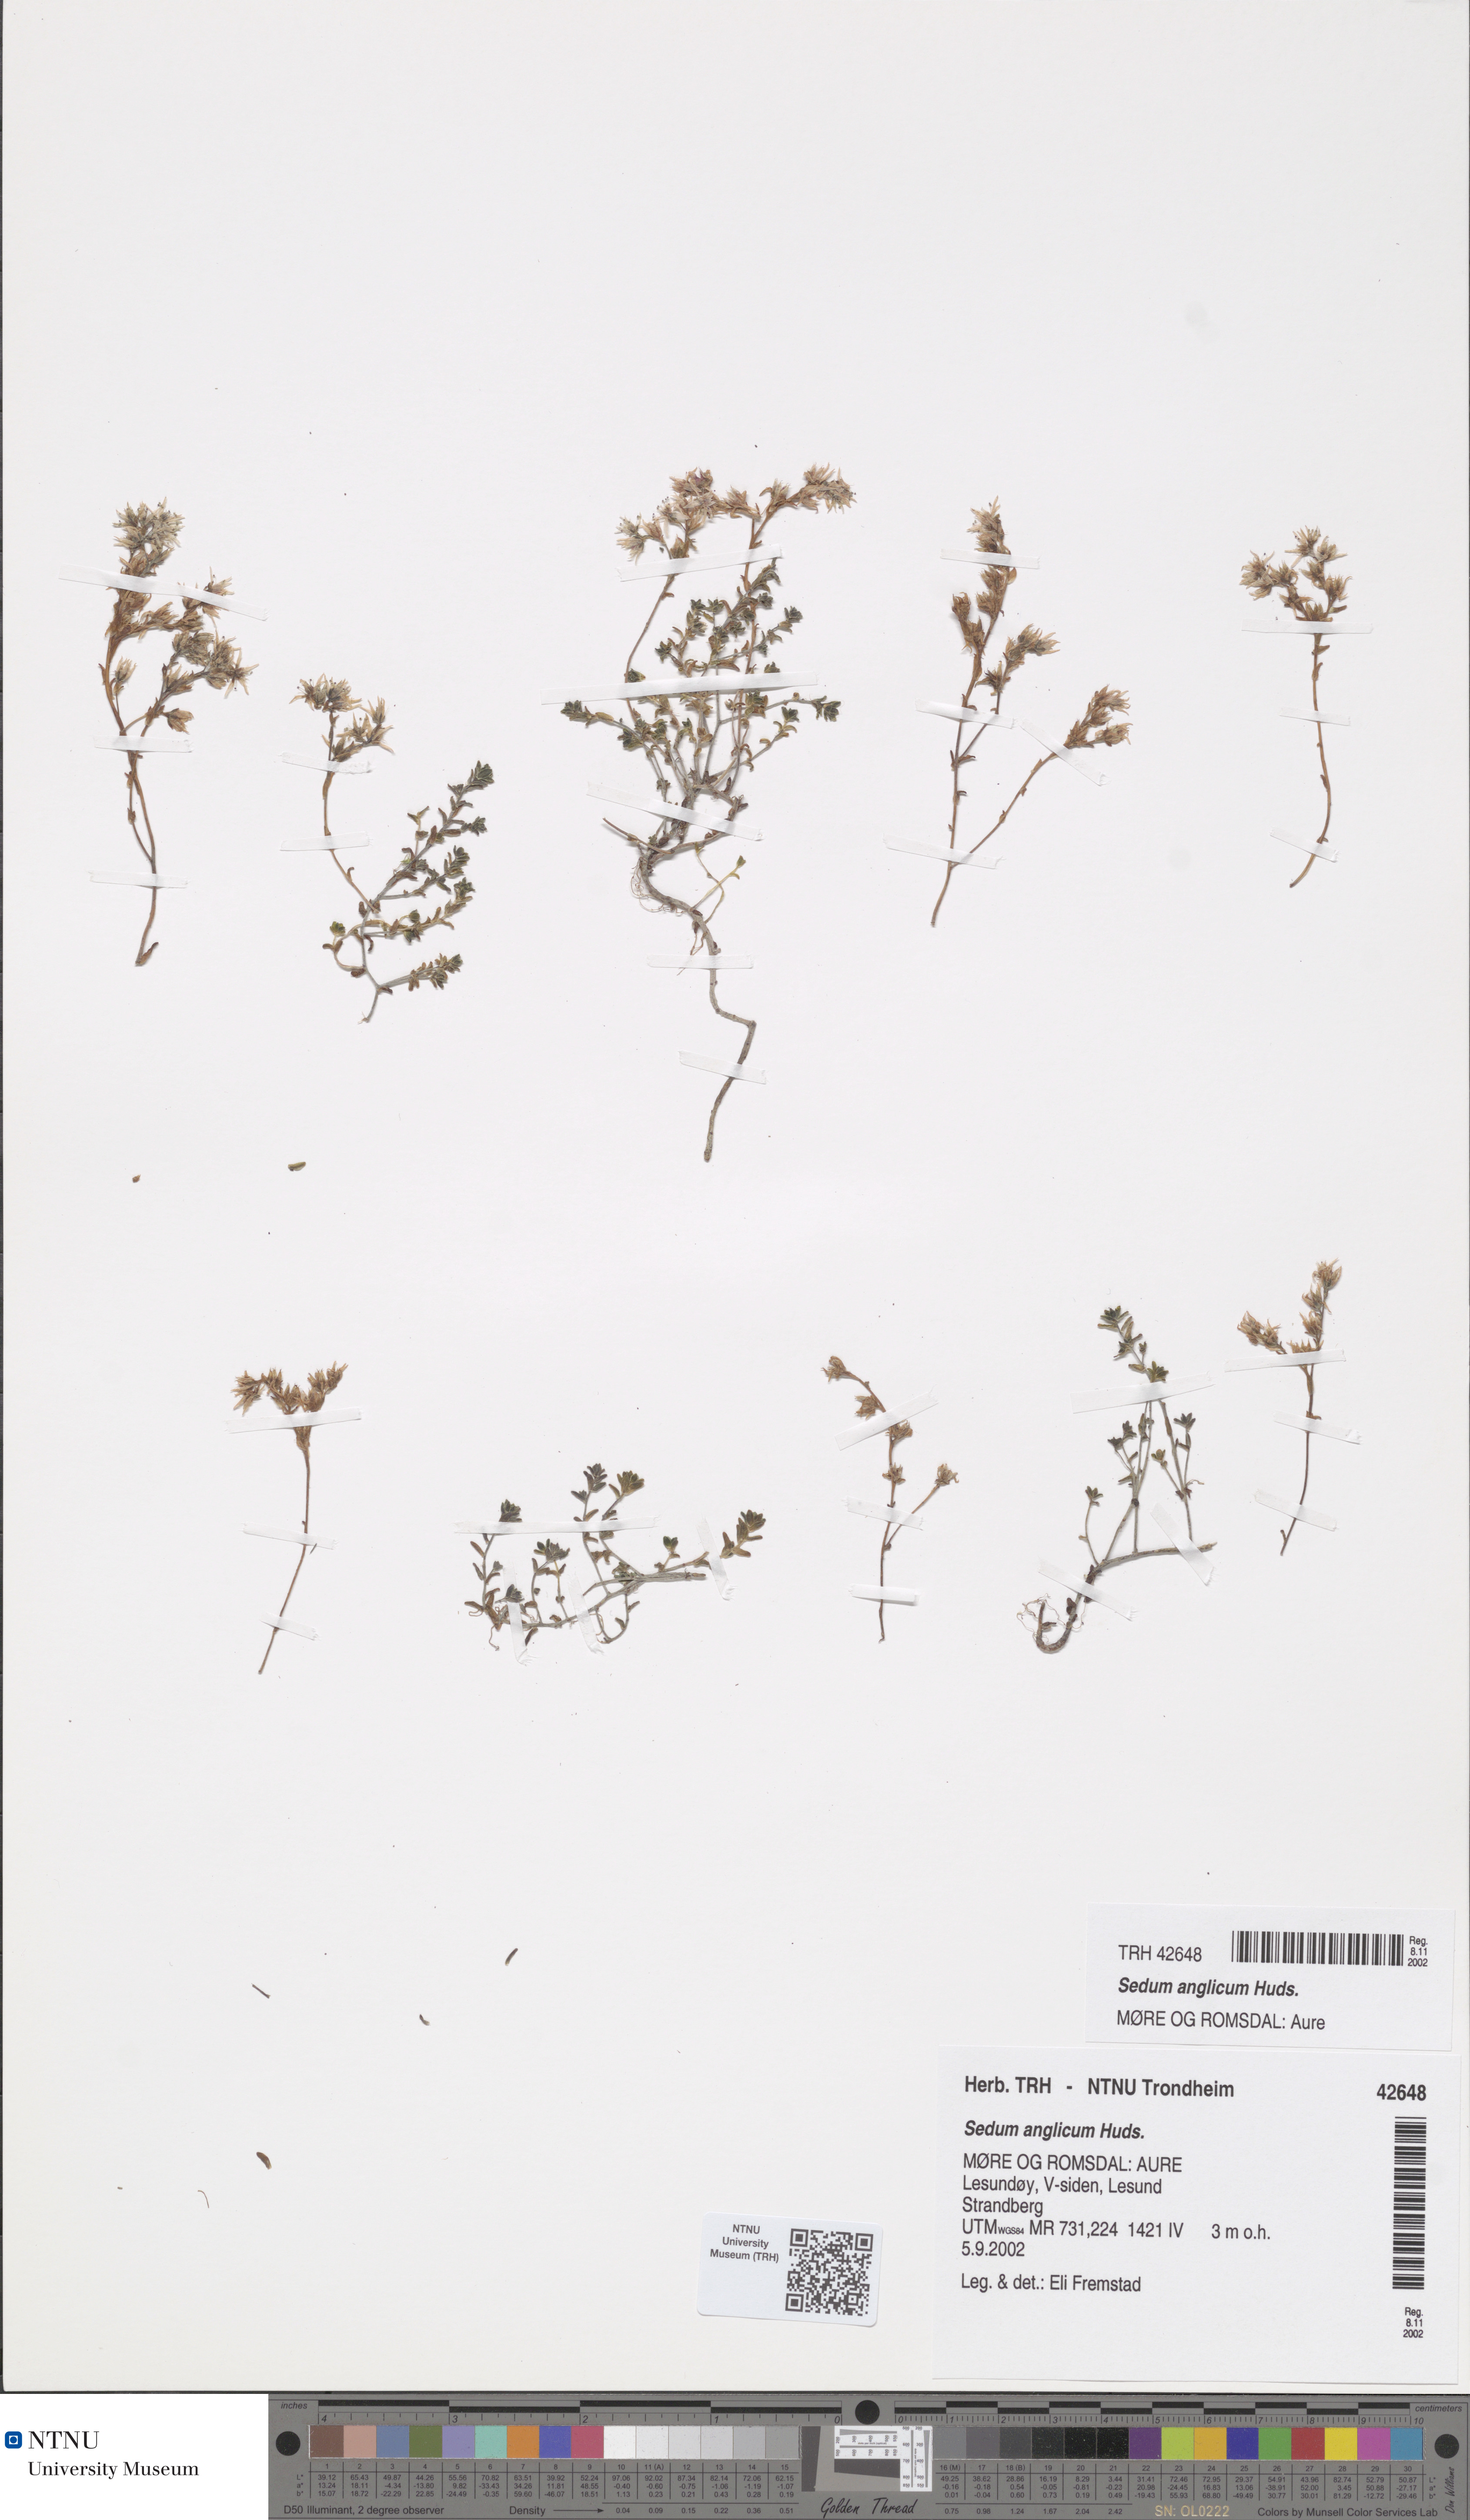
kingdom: Plantae
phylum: Tracheophyta
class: Magnoliopsida
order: Saxifragales
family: Crassulaceae
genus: Sedum
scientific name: Sedum anglicum
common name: English stonecrop
